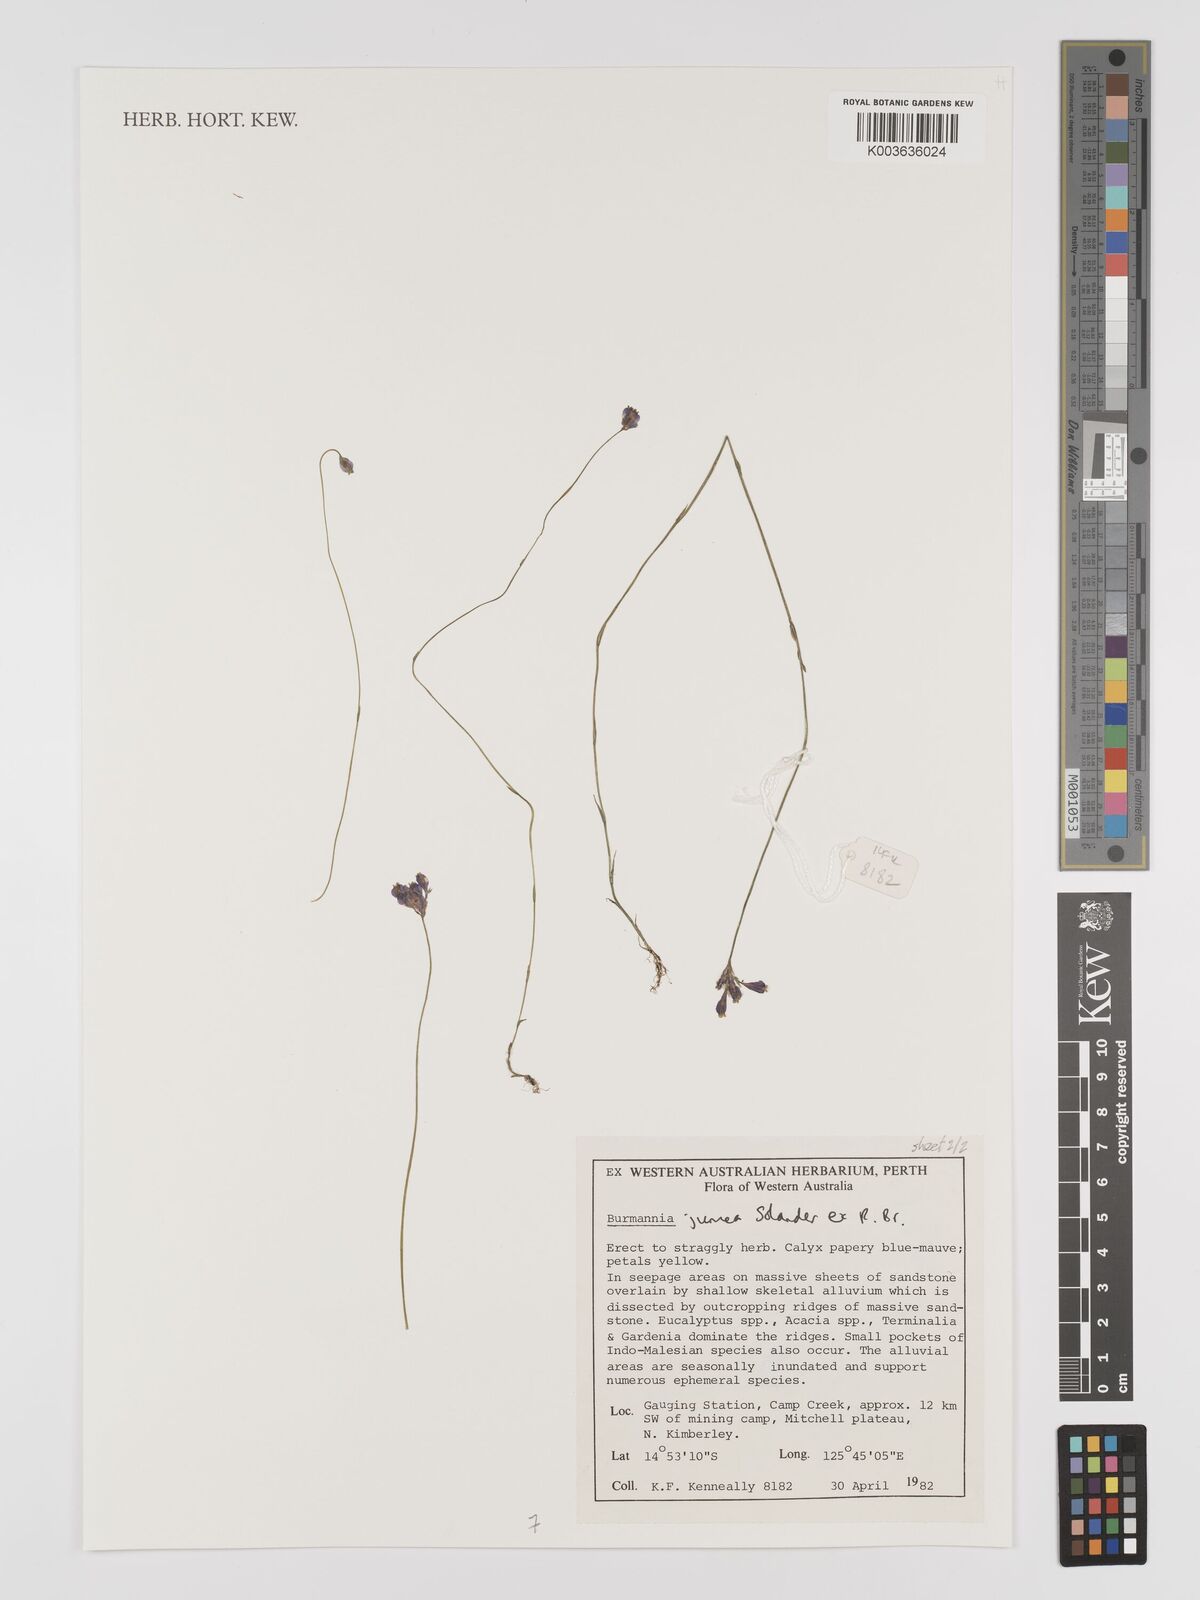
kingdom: Plantae
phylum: Tracheophyta
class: Liliopsida
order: Dioscoreales
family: Burmanniaceae
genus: Burmannia
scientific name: Burmannia juncea
